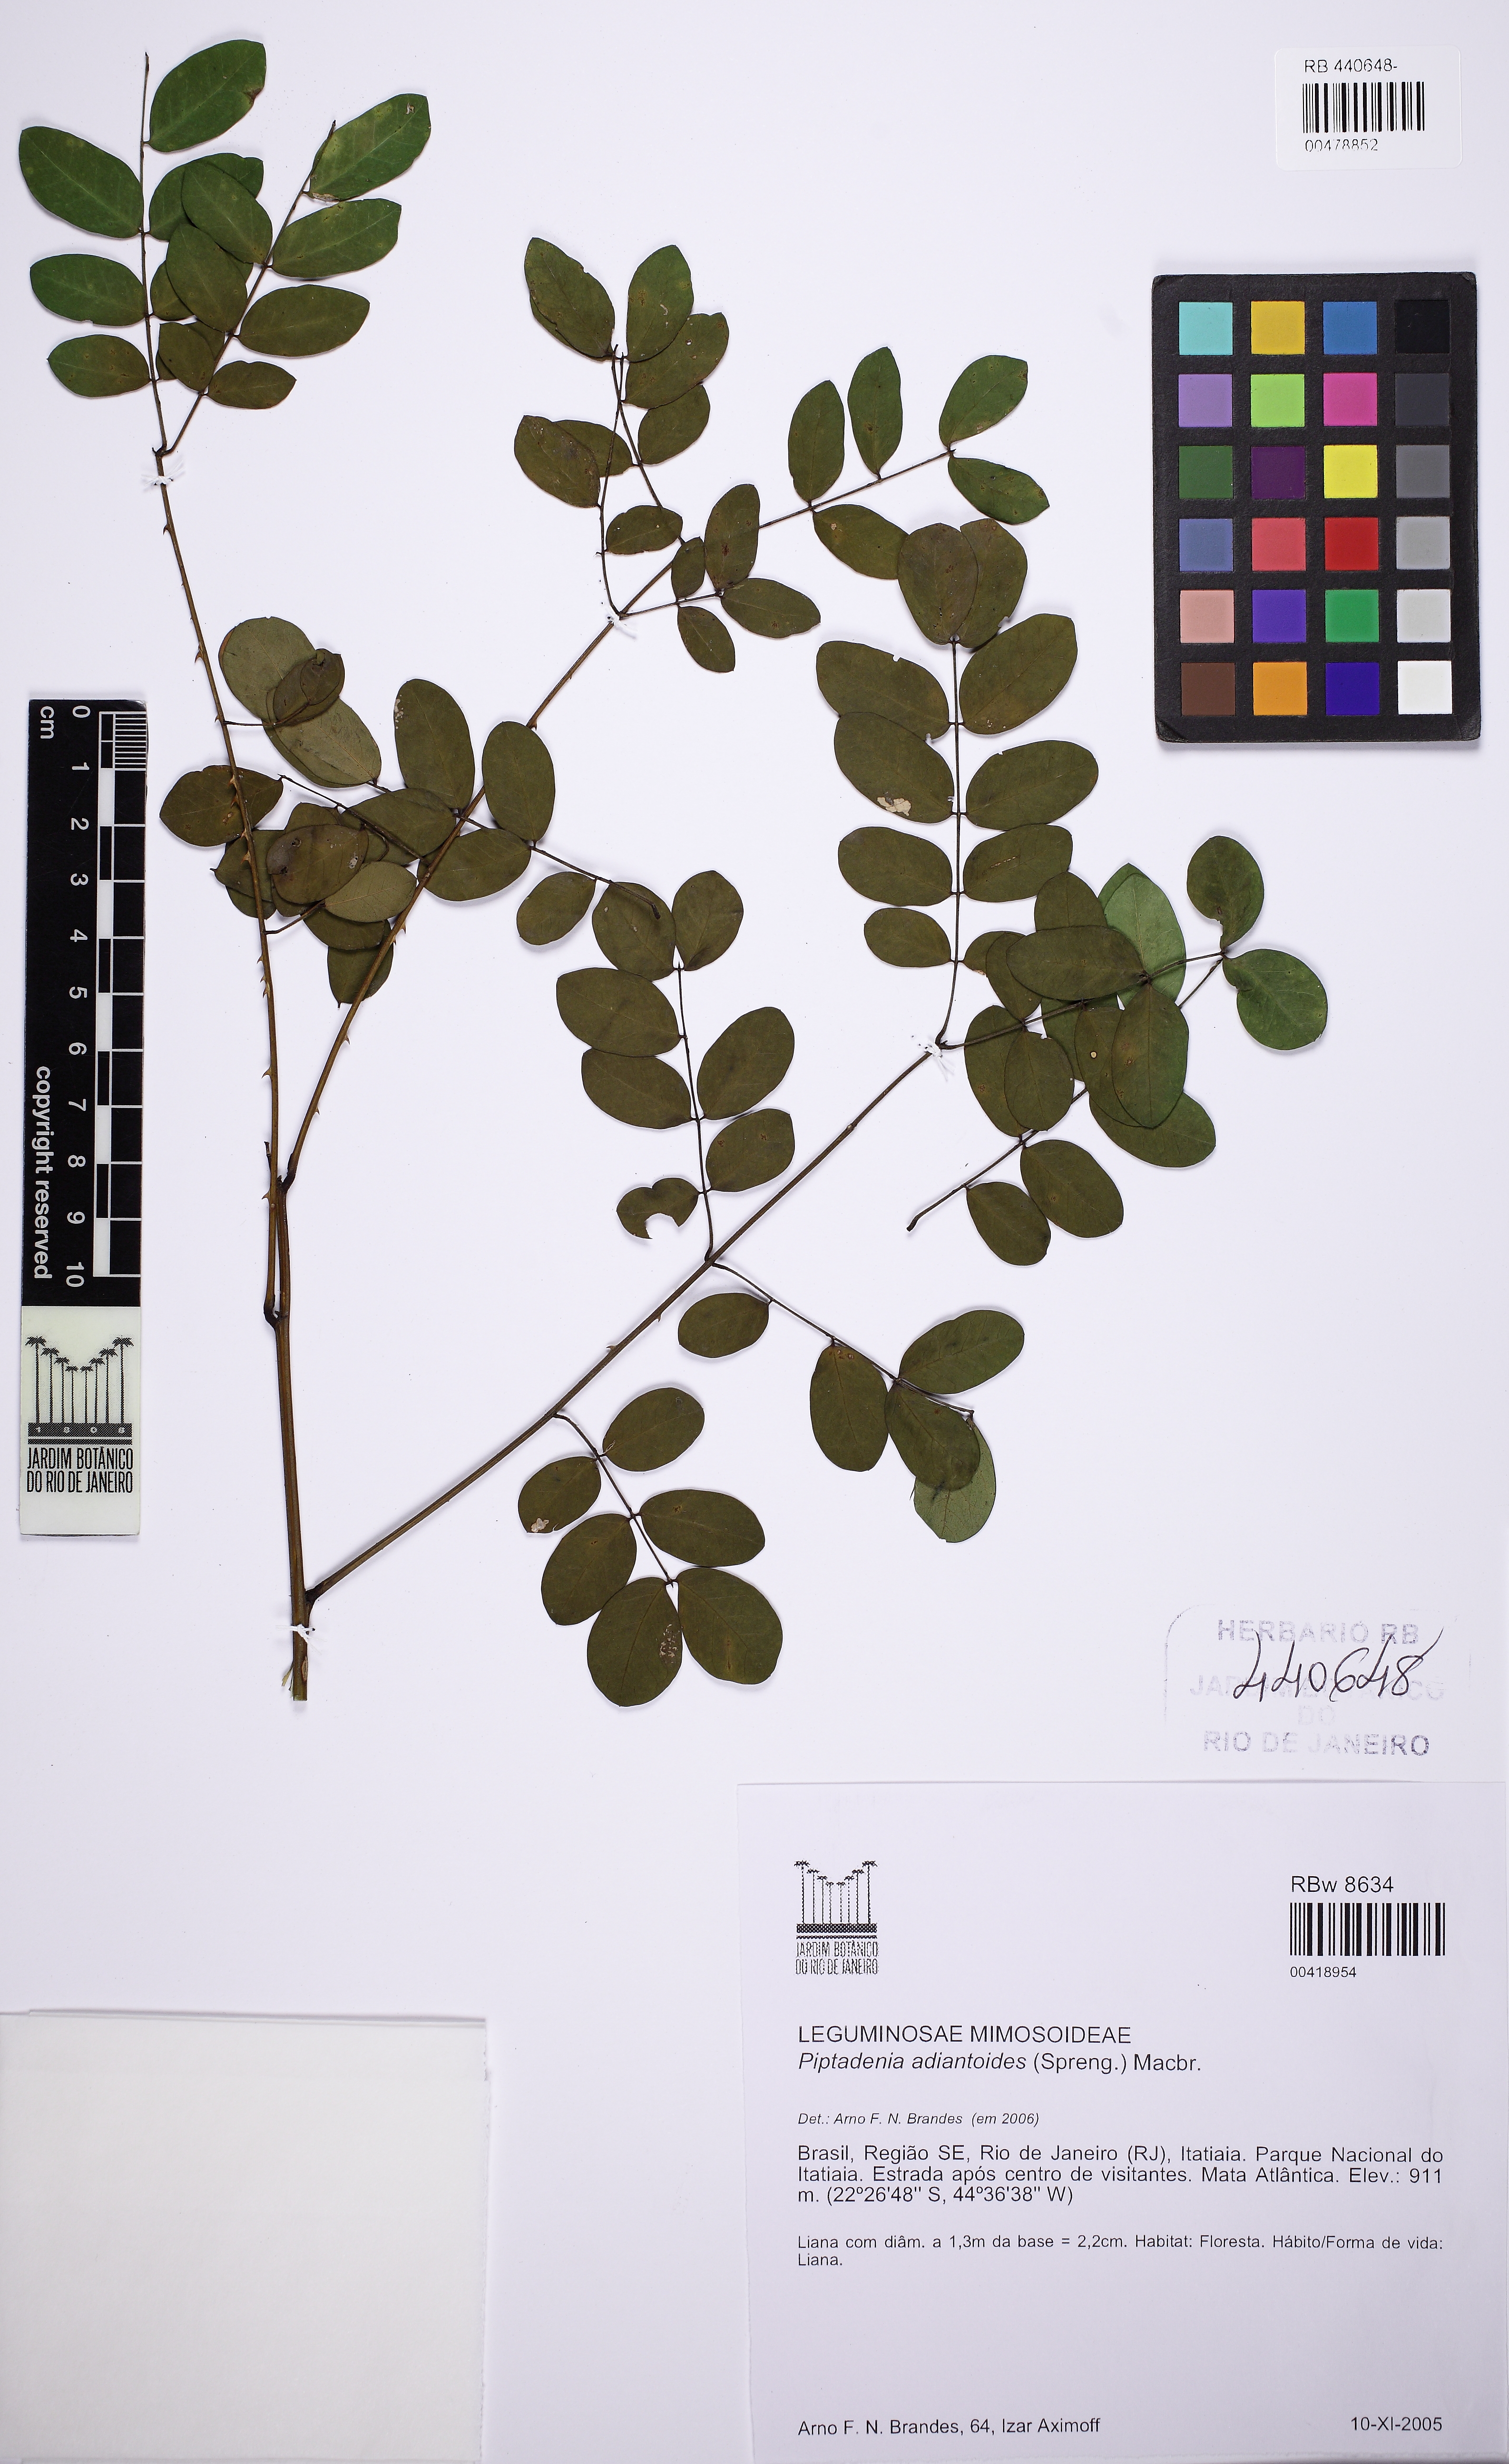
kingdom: Plantae
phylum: Tracheophyta
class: Magnoliopsida
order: Fabales
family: Fabaceae
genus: Piptadenia
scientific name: Piptadenia adiantoides
